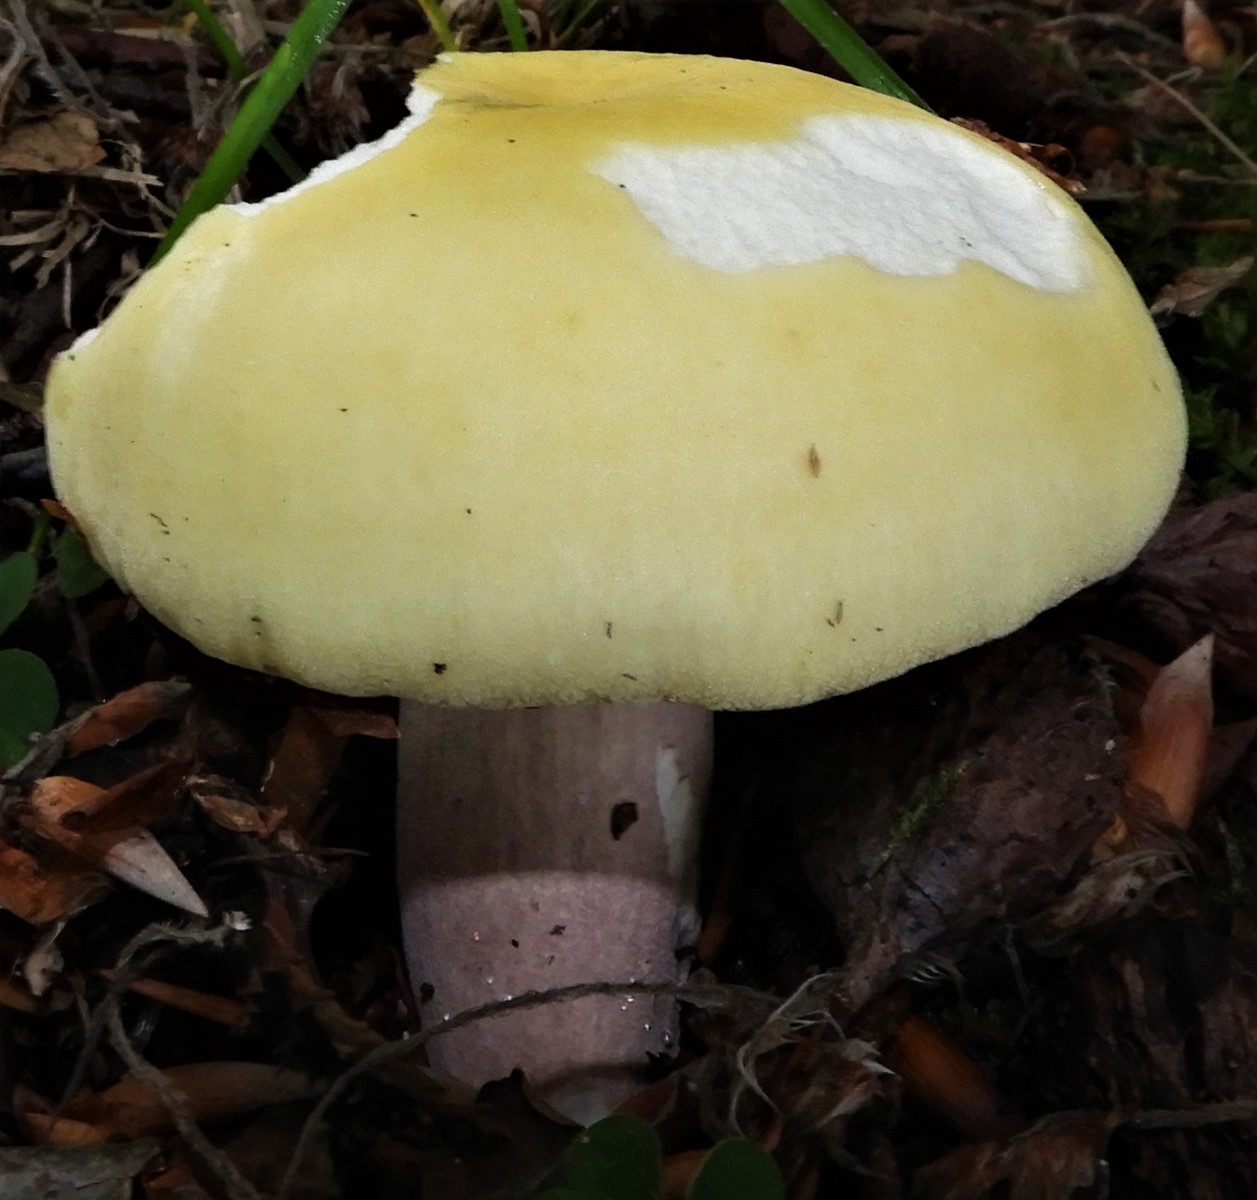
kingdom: Fungi
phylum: Basidiomycota
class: Agaricomycetes
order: Russulales
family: Russulaceae
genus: Russula
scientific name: Russula violeipes
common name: ferskengul skørhat
